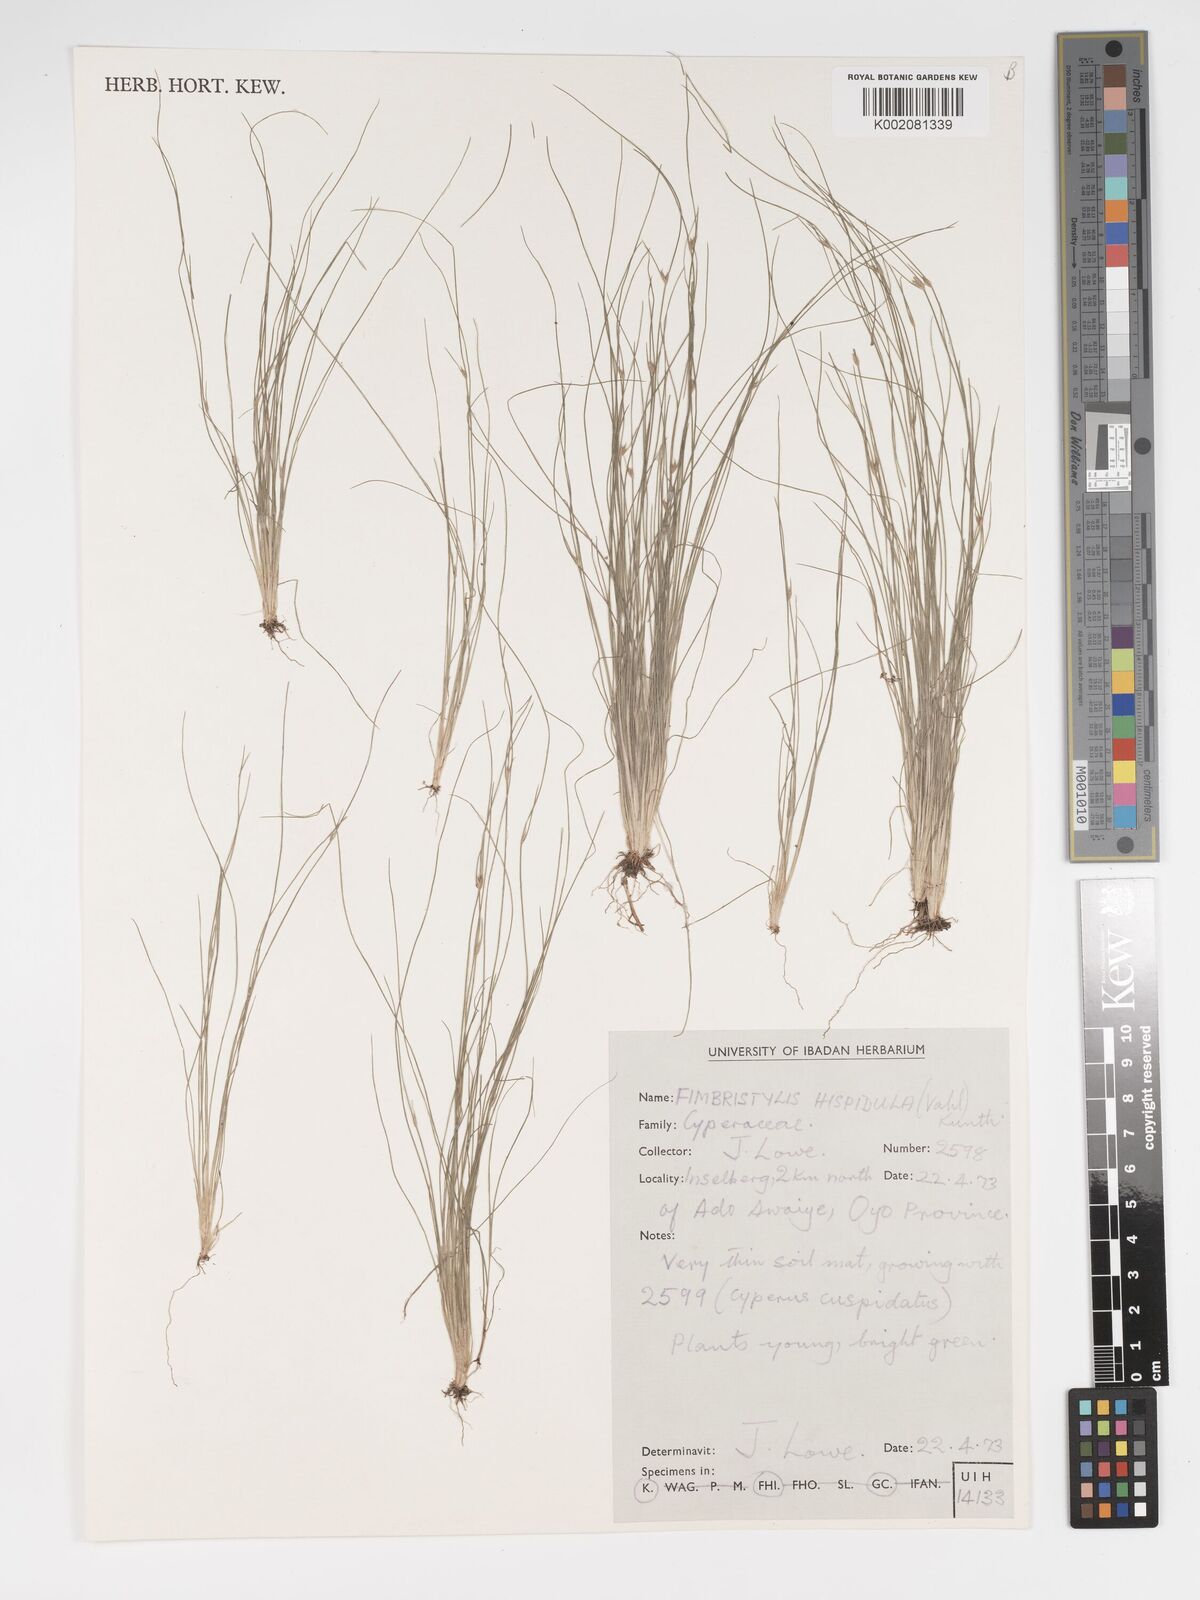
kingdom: Plantae
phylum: Tracheophyta
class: Liliopsida
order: Poales
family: Cyperaceae
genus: Bulbostylis
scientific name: Bulbostylis hispidula
